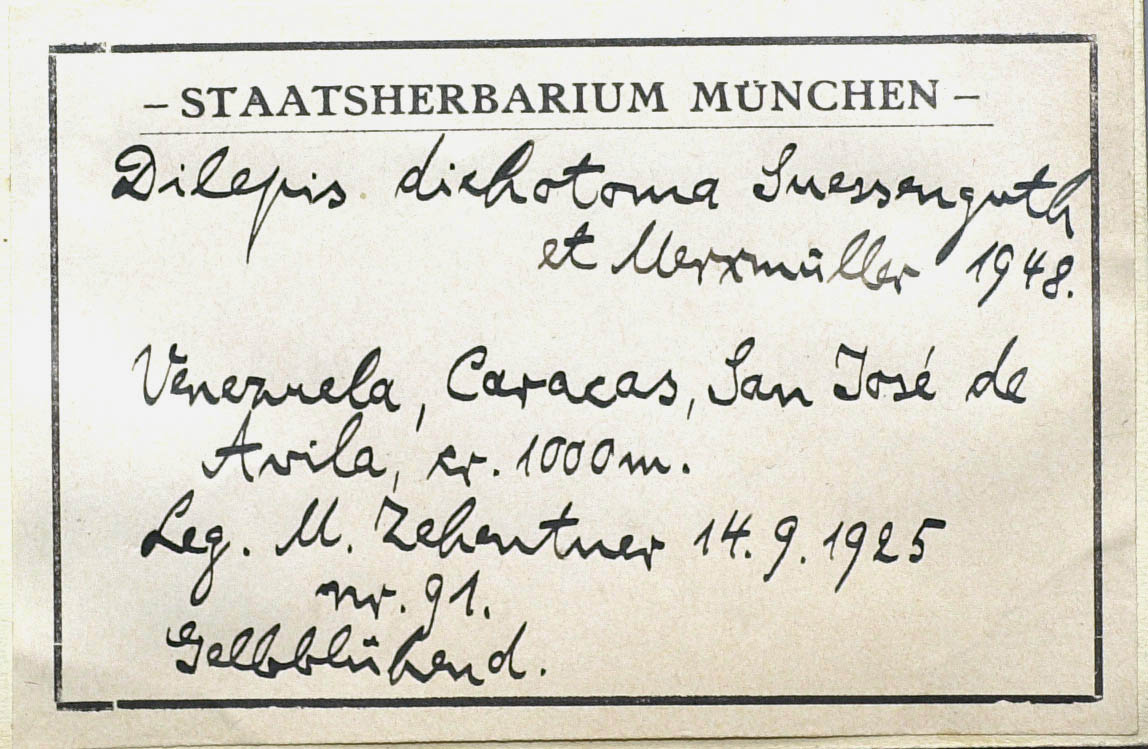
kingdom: Plantae
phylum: Tracheophyta
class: Magnoliopsida
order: Asterales
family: Asteraceae
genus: Flaveria
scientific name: Flaveria trinervia
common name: Clustered yellowtops
